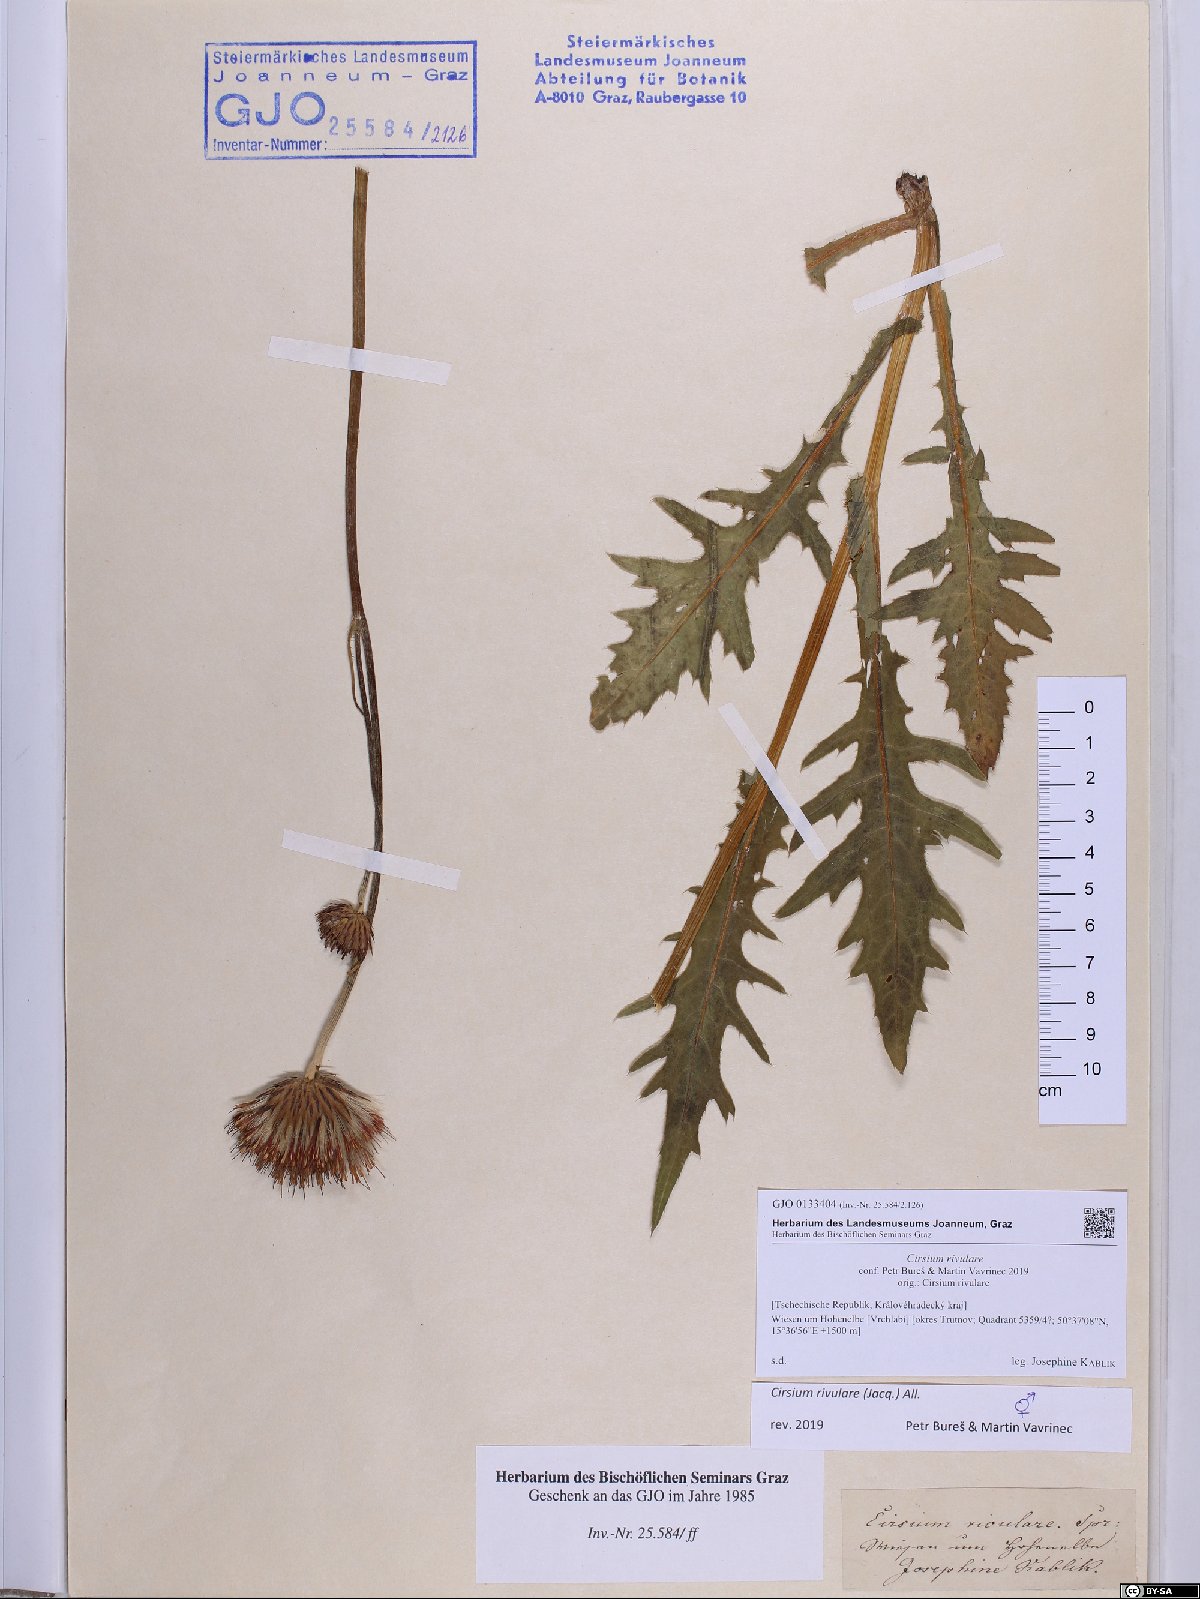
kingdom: Plantae
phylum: Tracheophyta
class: Magnoliopsida
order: Asterales
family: Asteraceae
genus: Cirsium
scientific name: Cirsium rivulare
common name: Brook thistle
